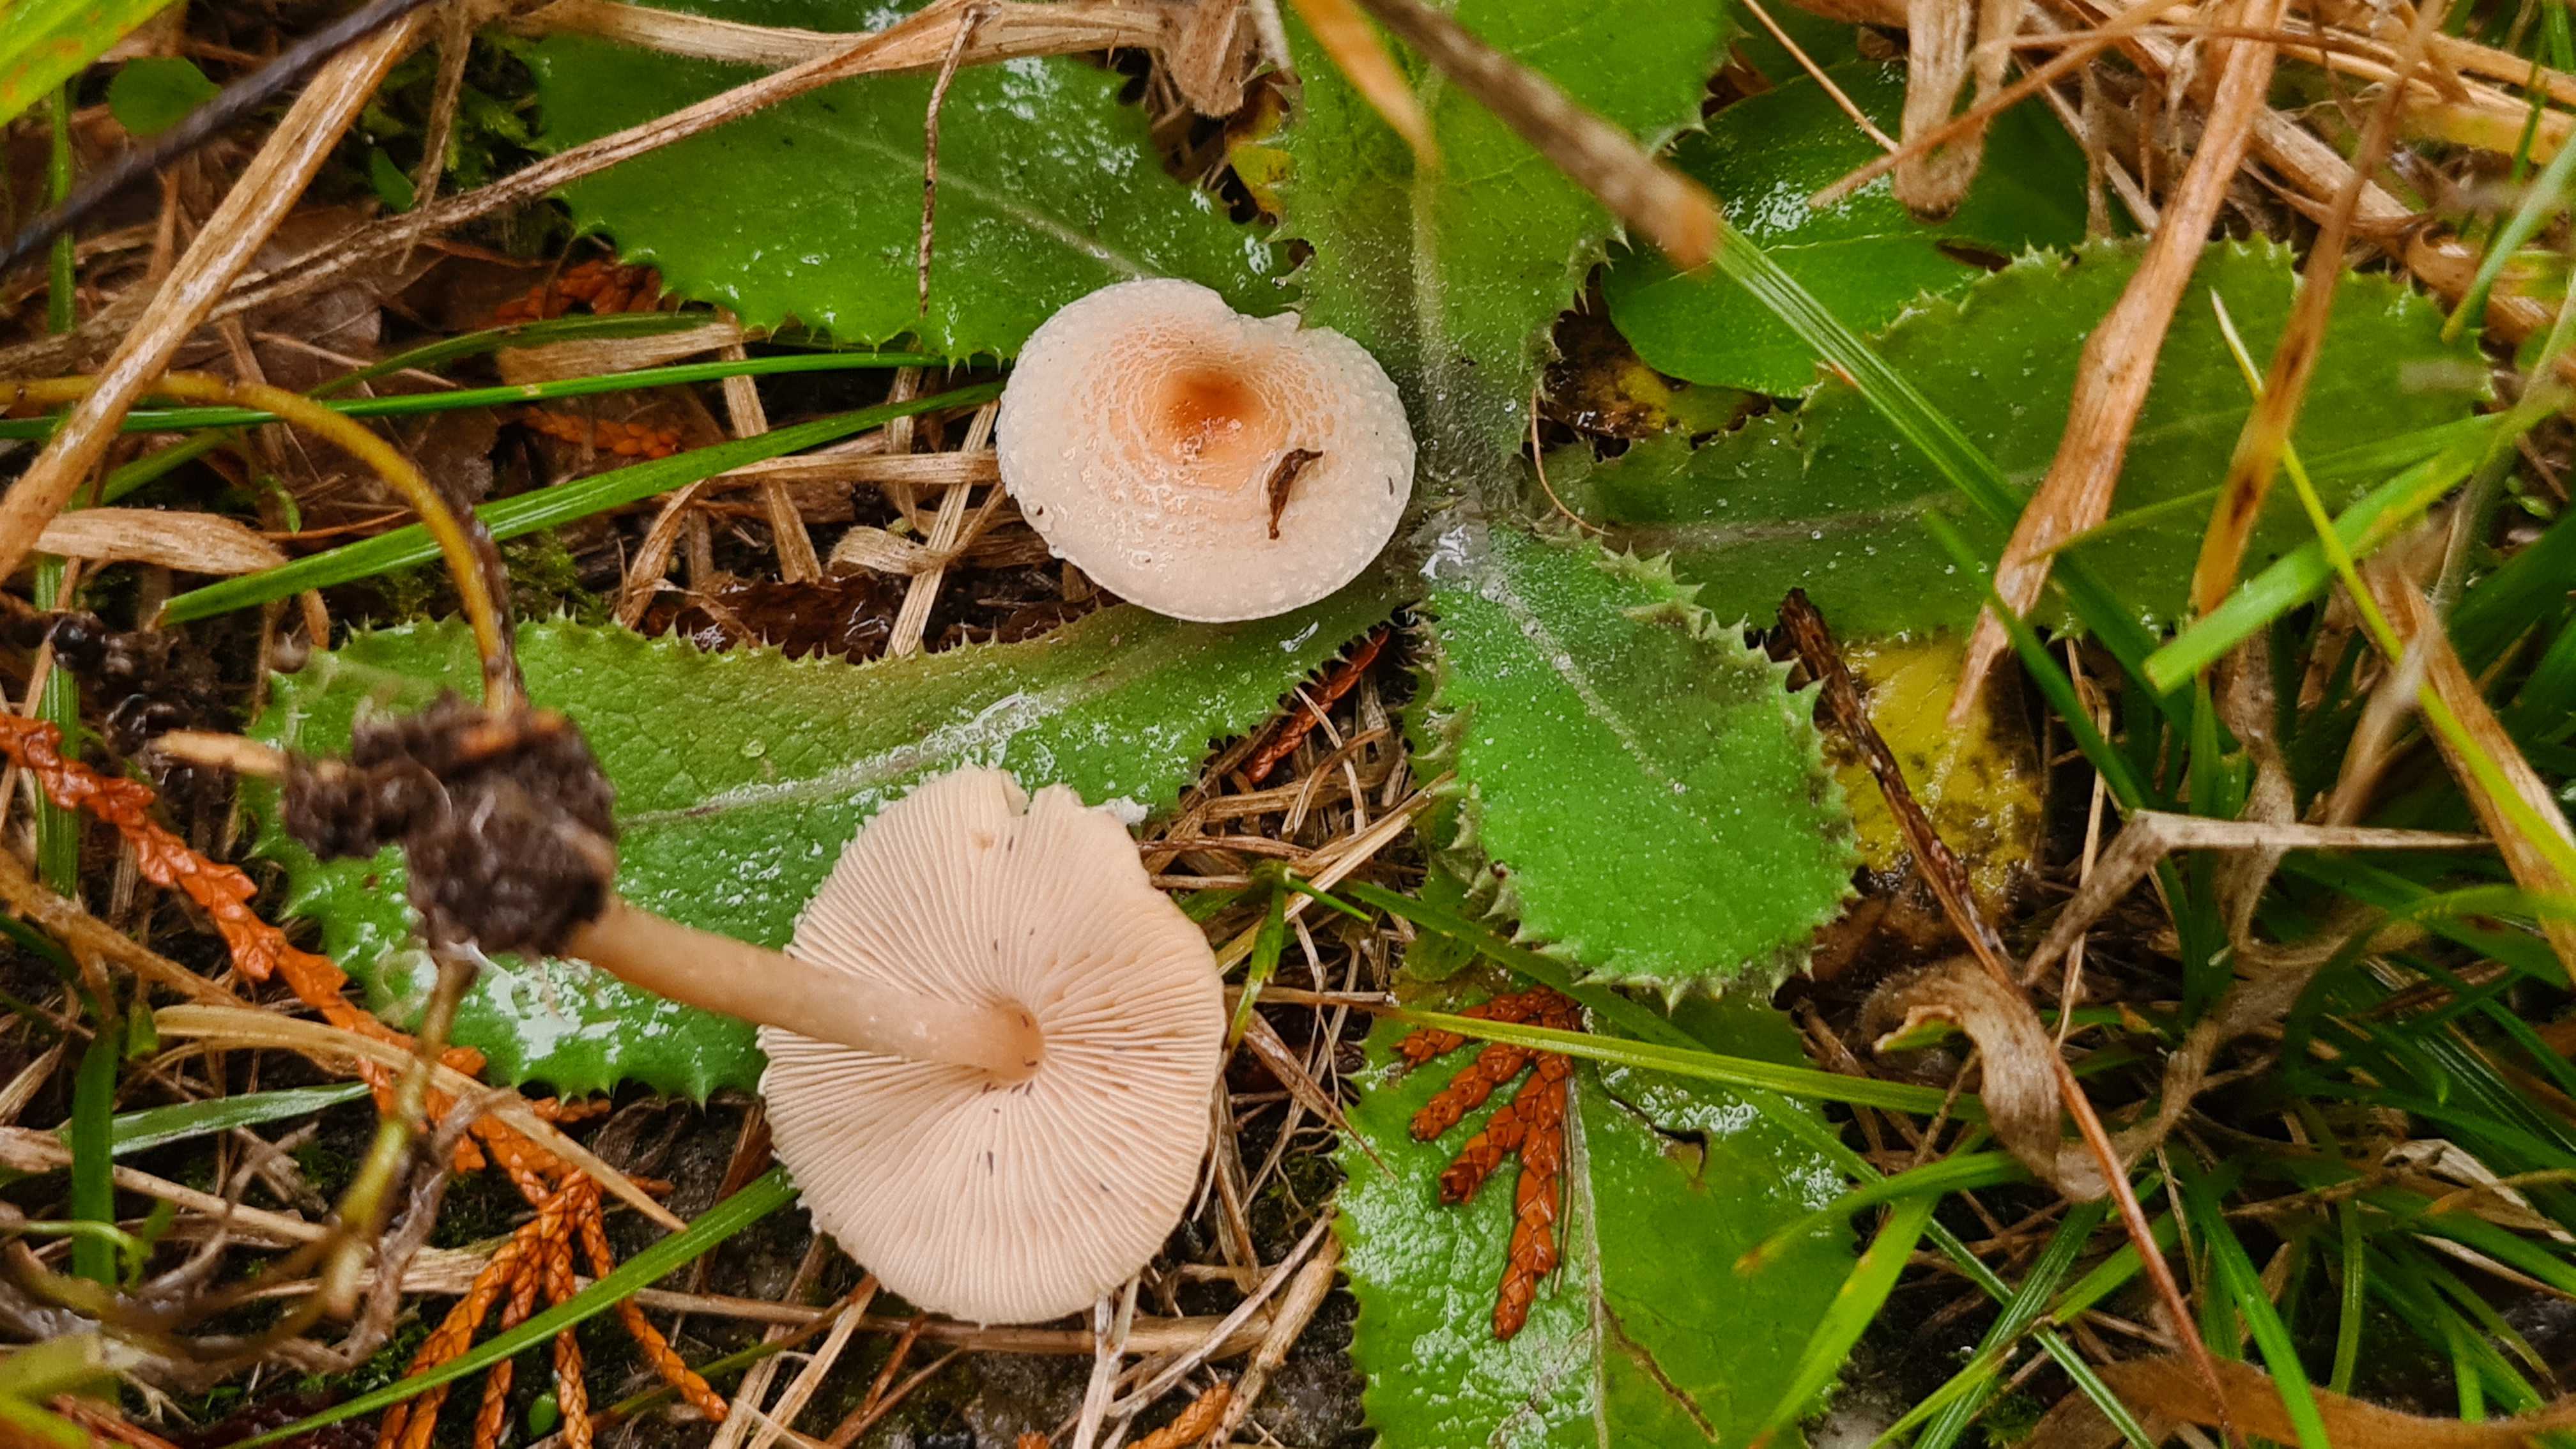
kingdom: Fungi
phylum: Basidiomycota
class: Agaricomycetes
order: Agaricales
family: Agaricaceae
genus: Lepiota
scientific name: Lepiota cristata
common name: stinkende parasolhat
